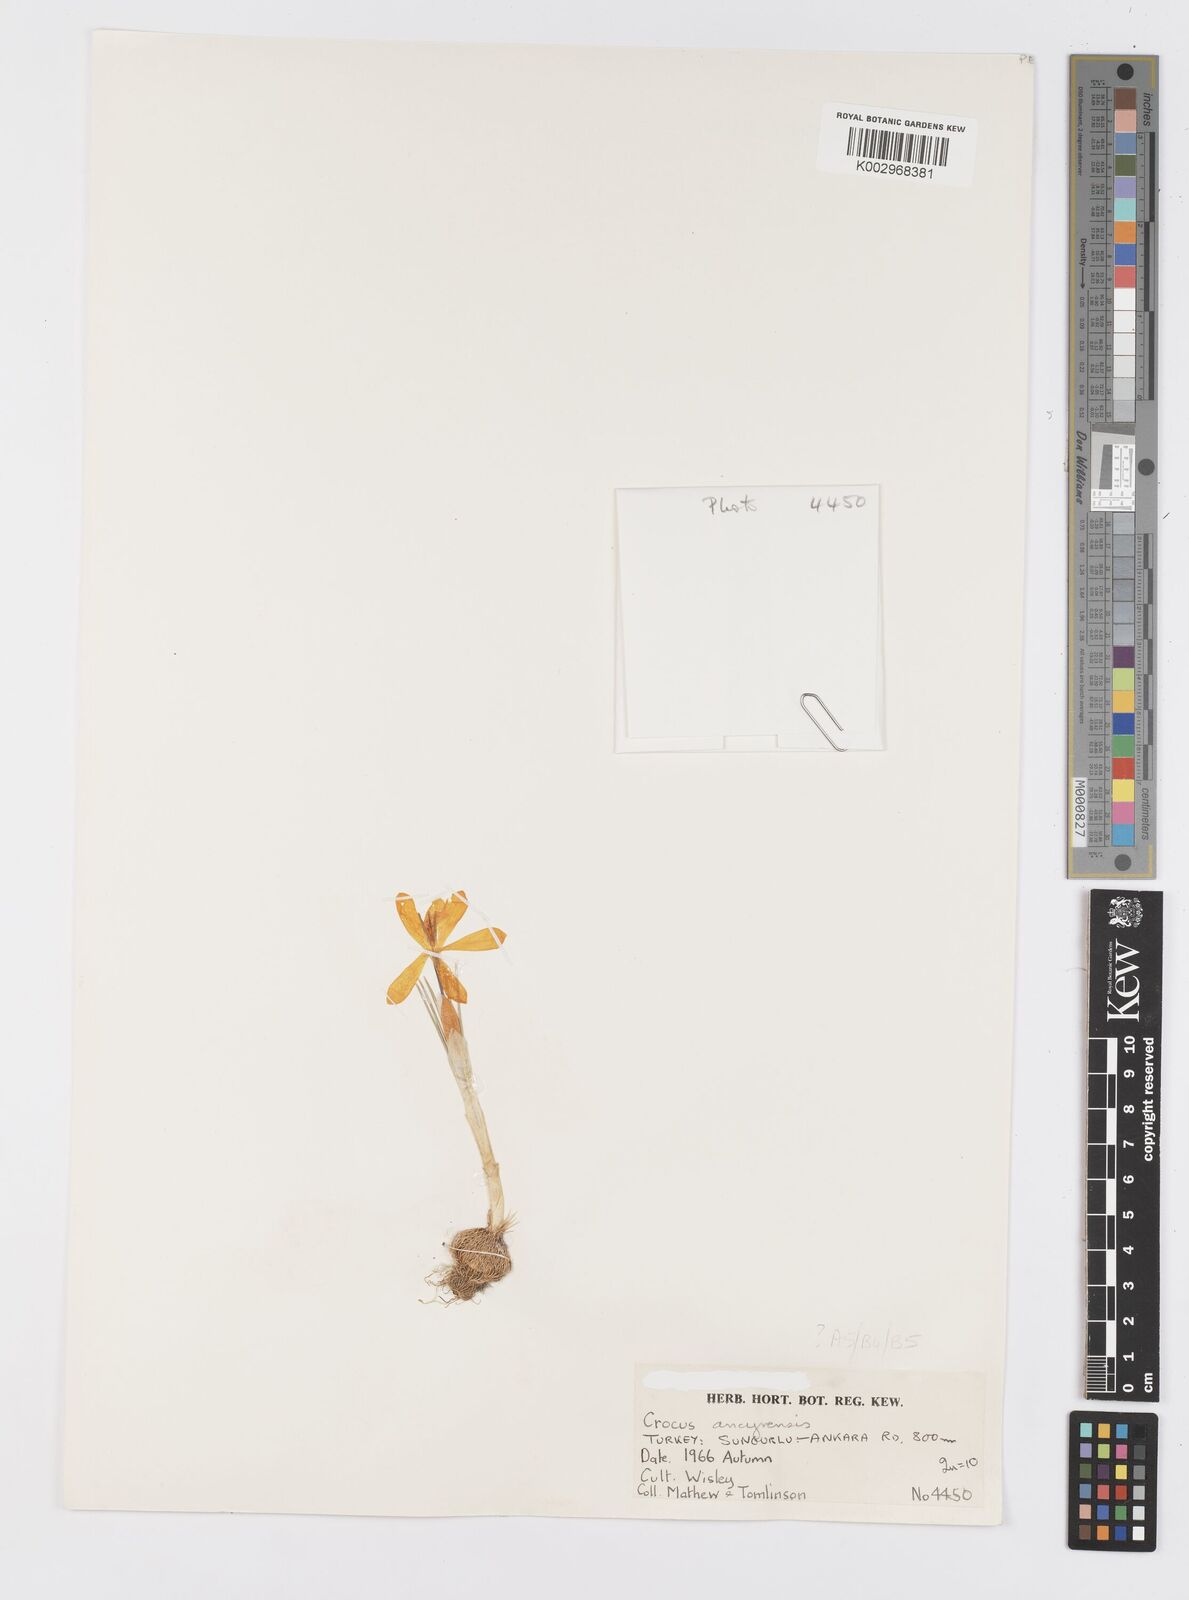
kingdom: Plantae
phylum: Tracheophyta
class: Liliopsida
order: Asparagales
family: Iridaceae
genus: Crocus
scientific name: Crocus ancyrensis
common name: Ankara crocus
